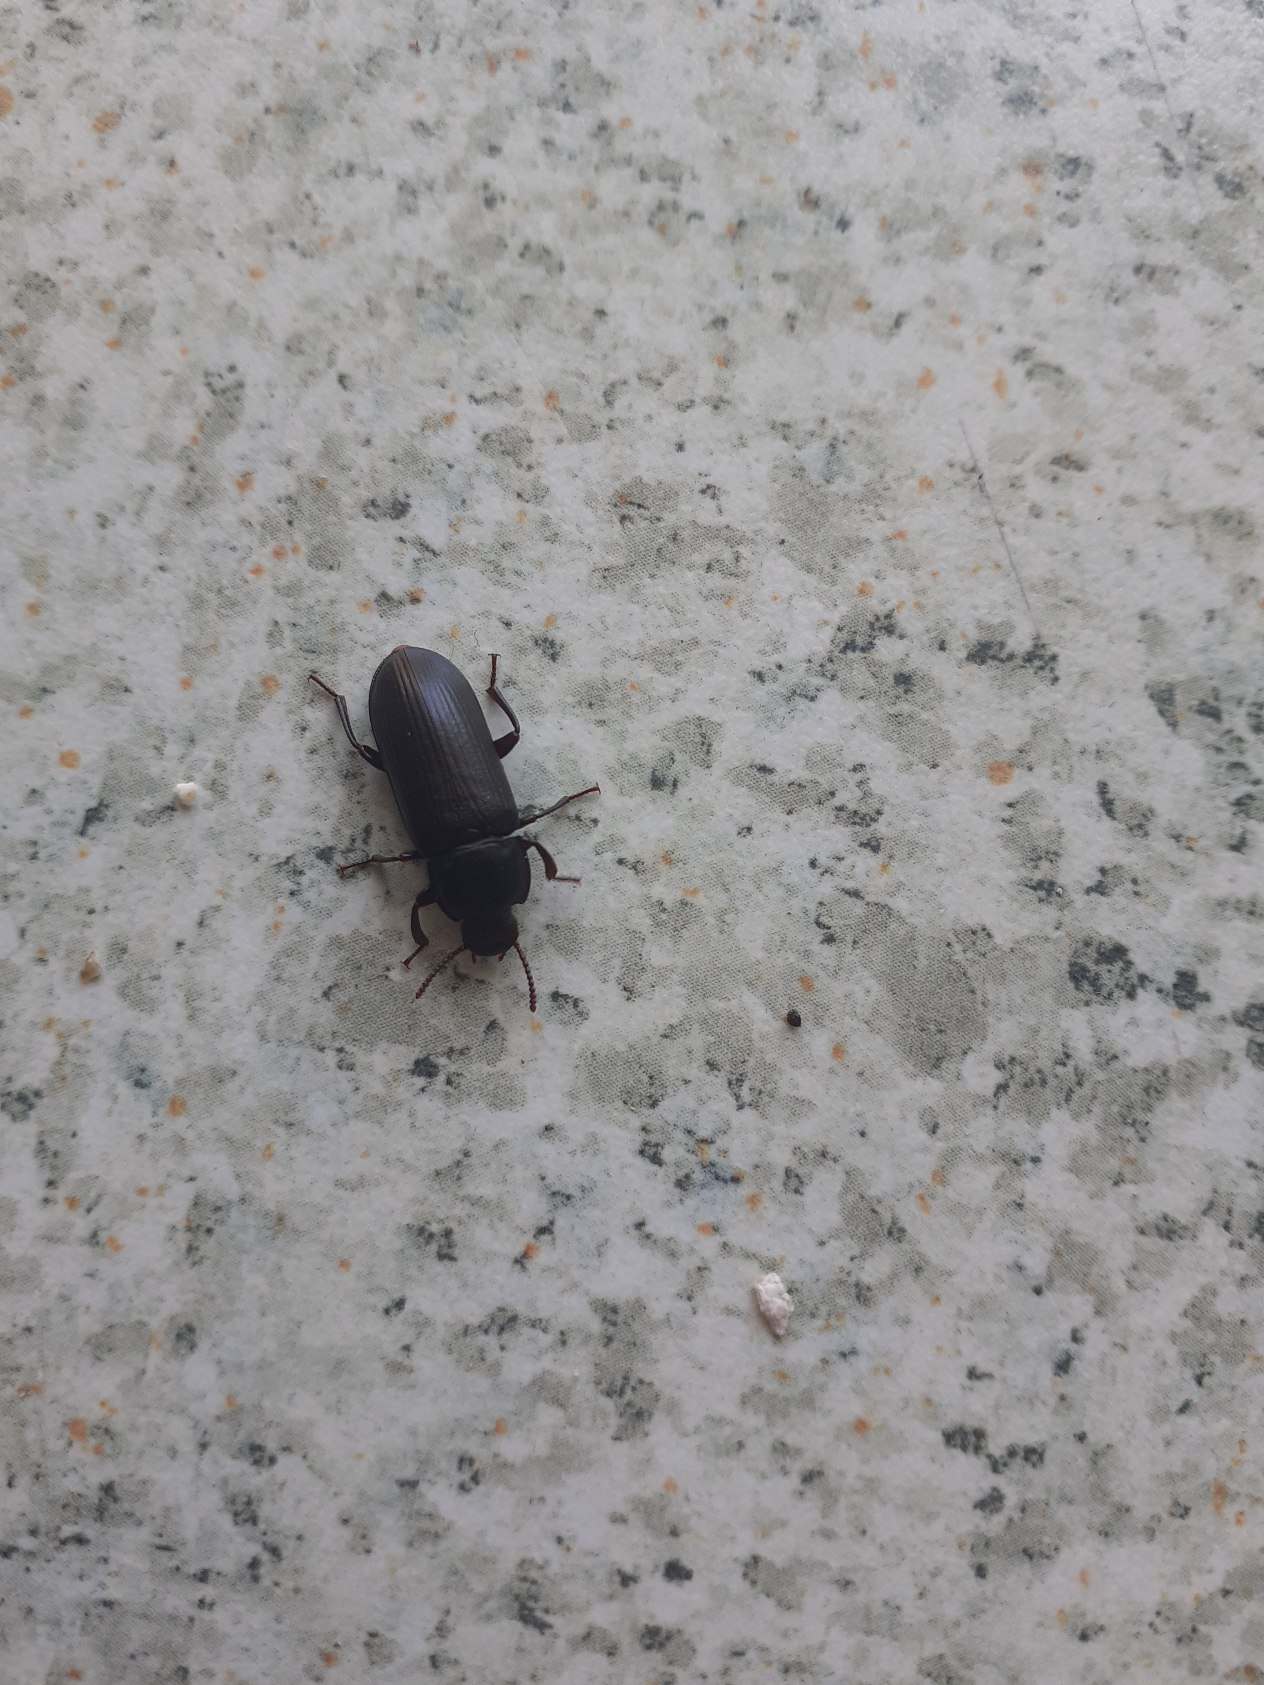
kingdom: Animalia
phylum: Arthropoda
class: Insecta
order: Coleoptera
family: Tenebrionidae
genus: Tenebrio
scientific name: Tenebrio molitor
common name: Melskrubbe
